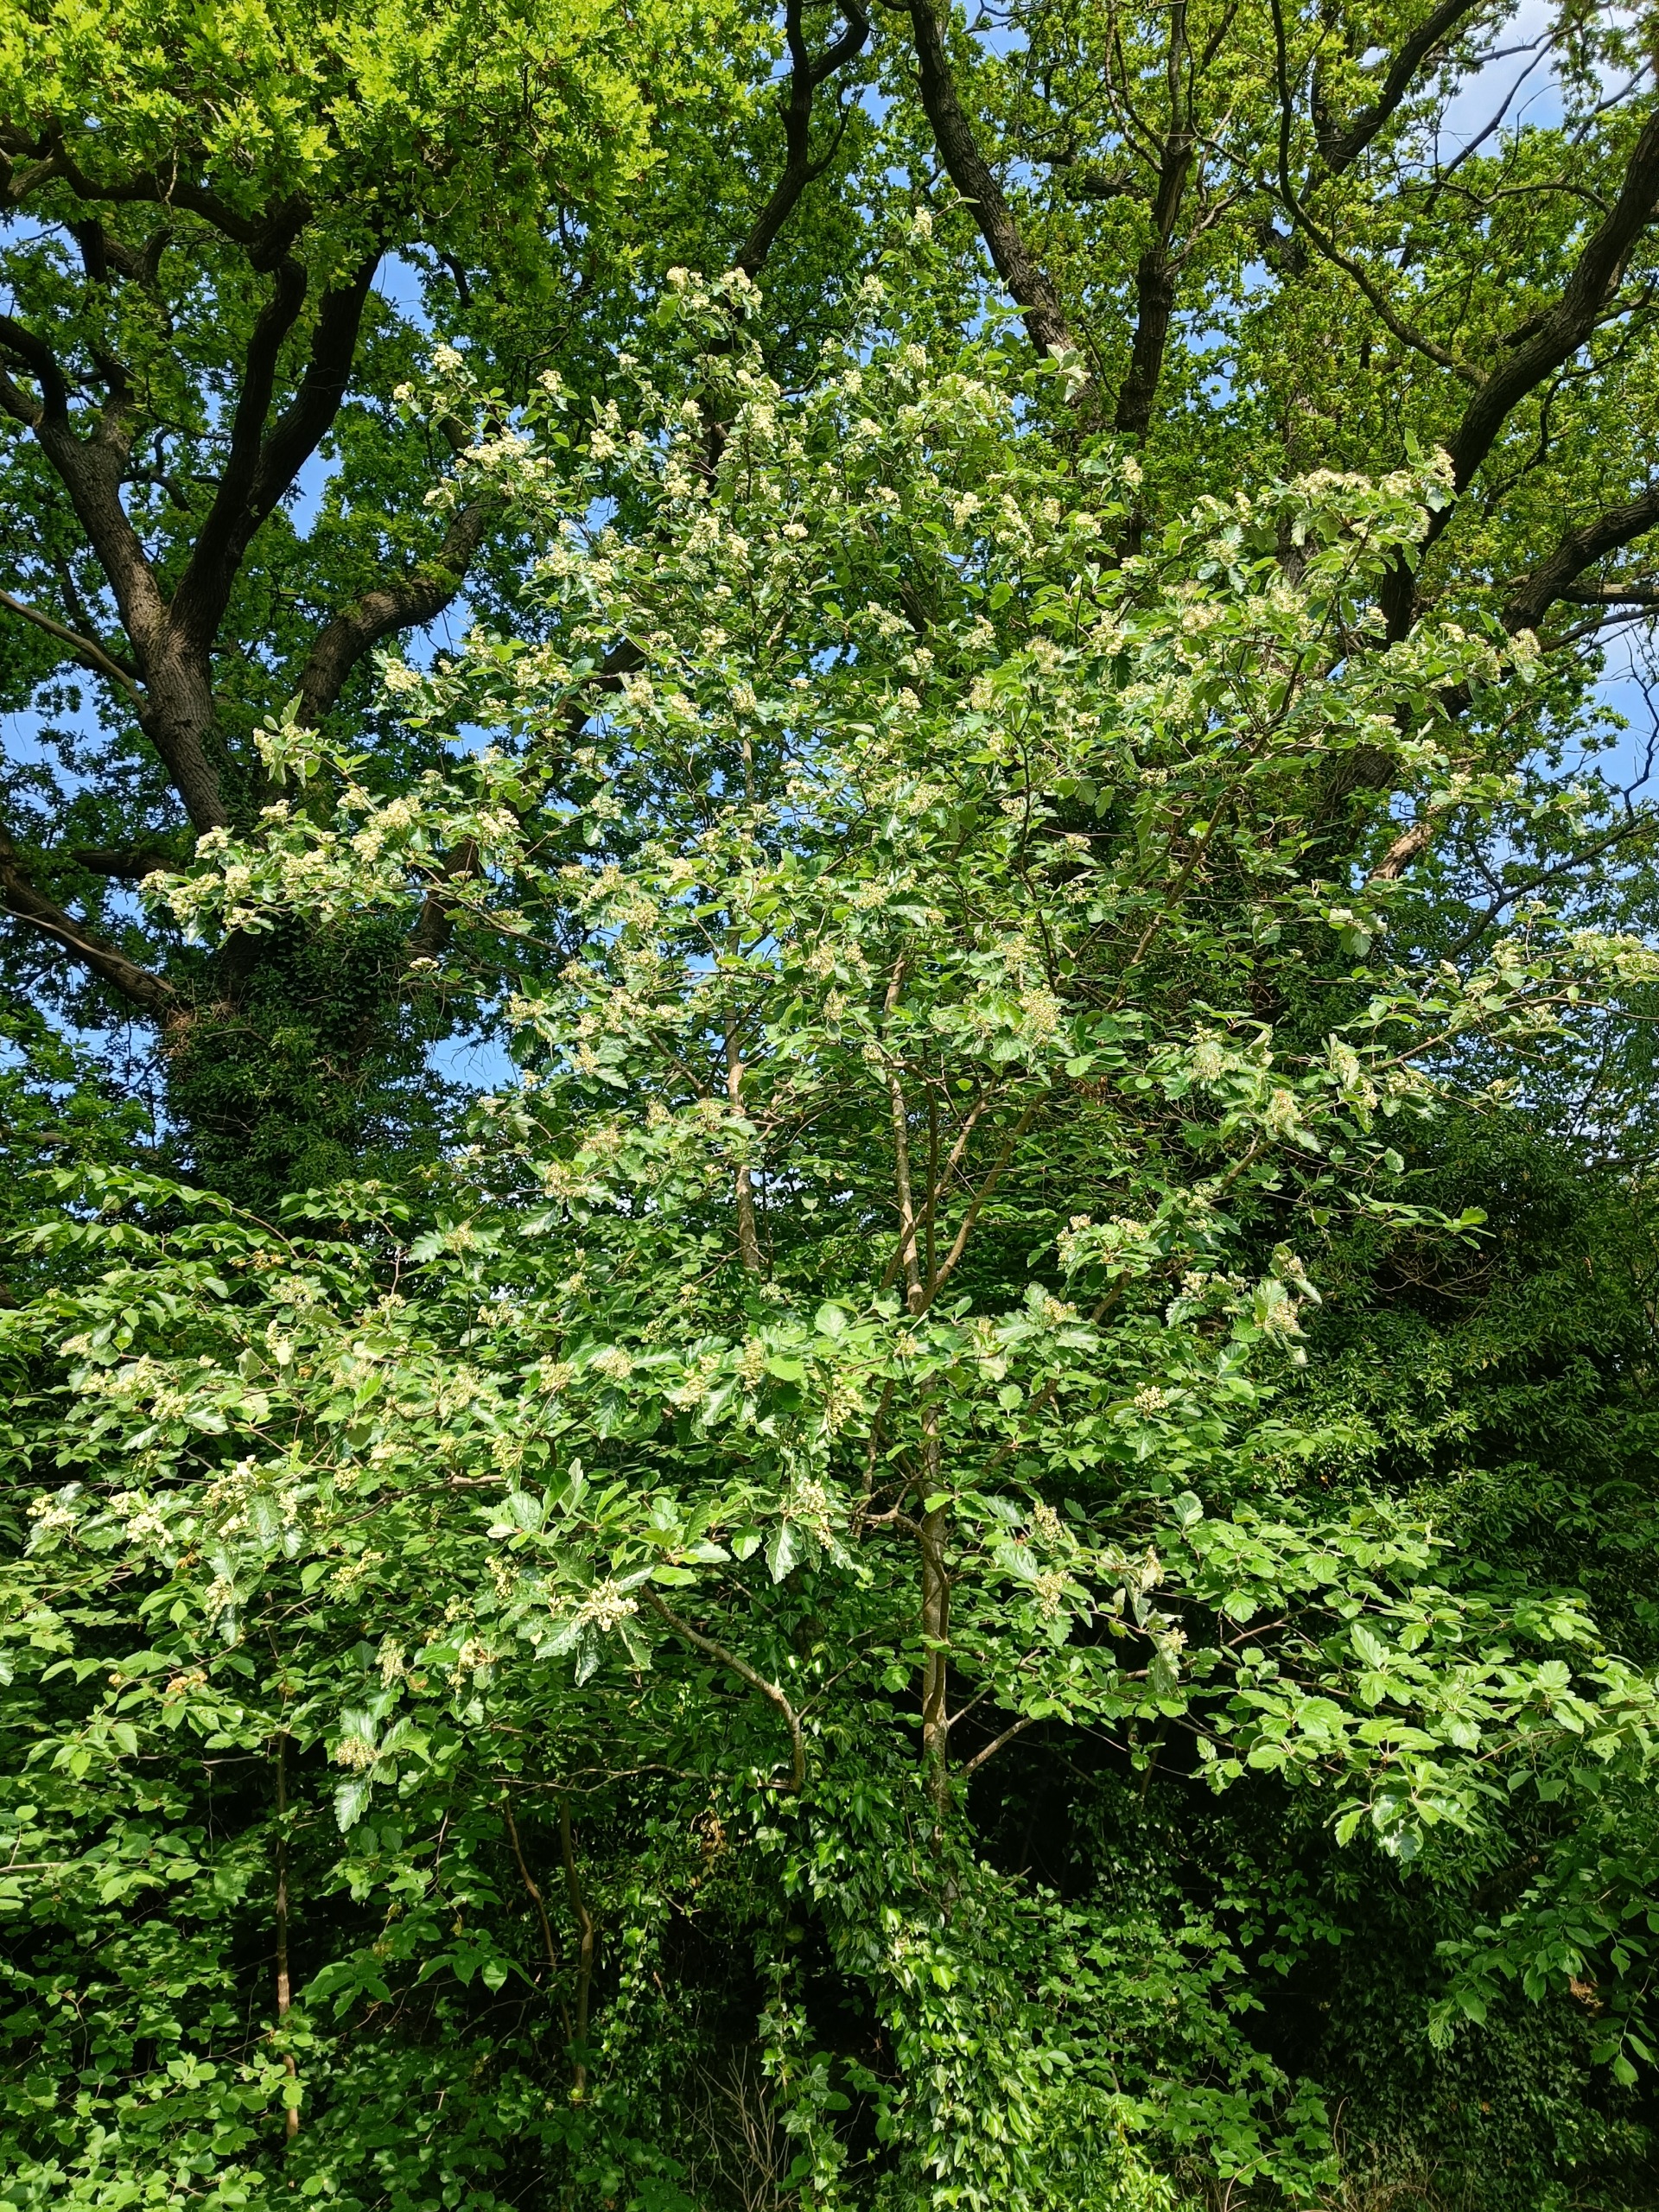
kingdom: Plantae
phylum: Tracheophyta
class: Magnoliopsida
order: Rosales
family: Rosaceae
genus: Scandosorbus
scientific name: Scandosorbus intermedia
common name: Selje-røn
